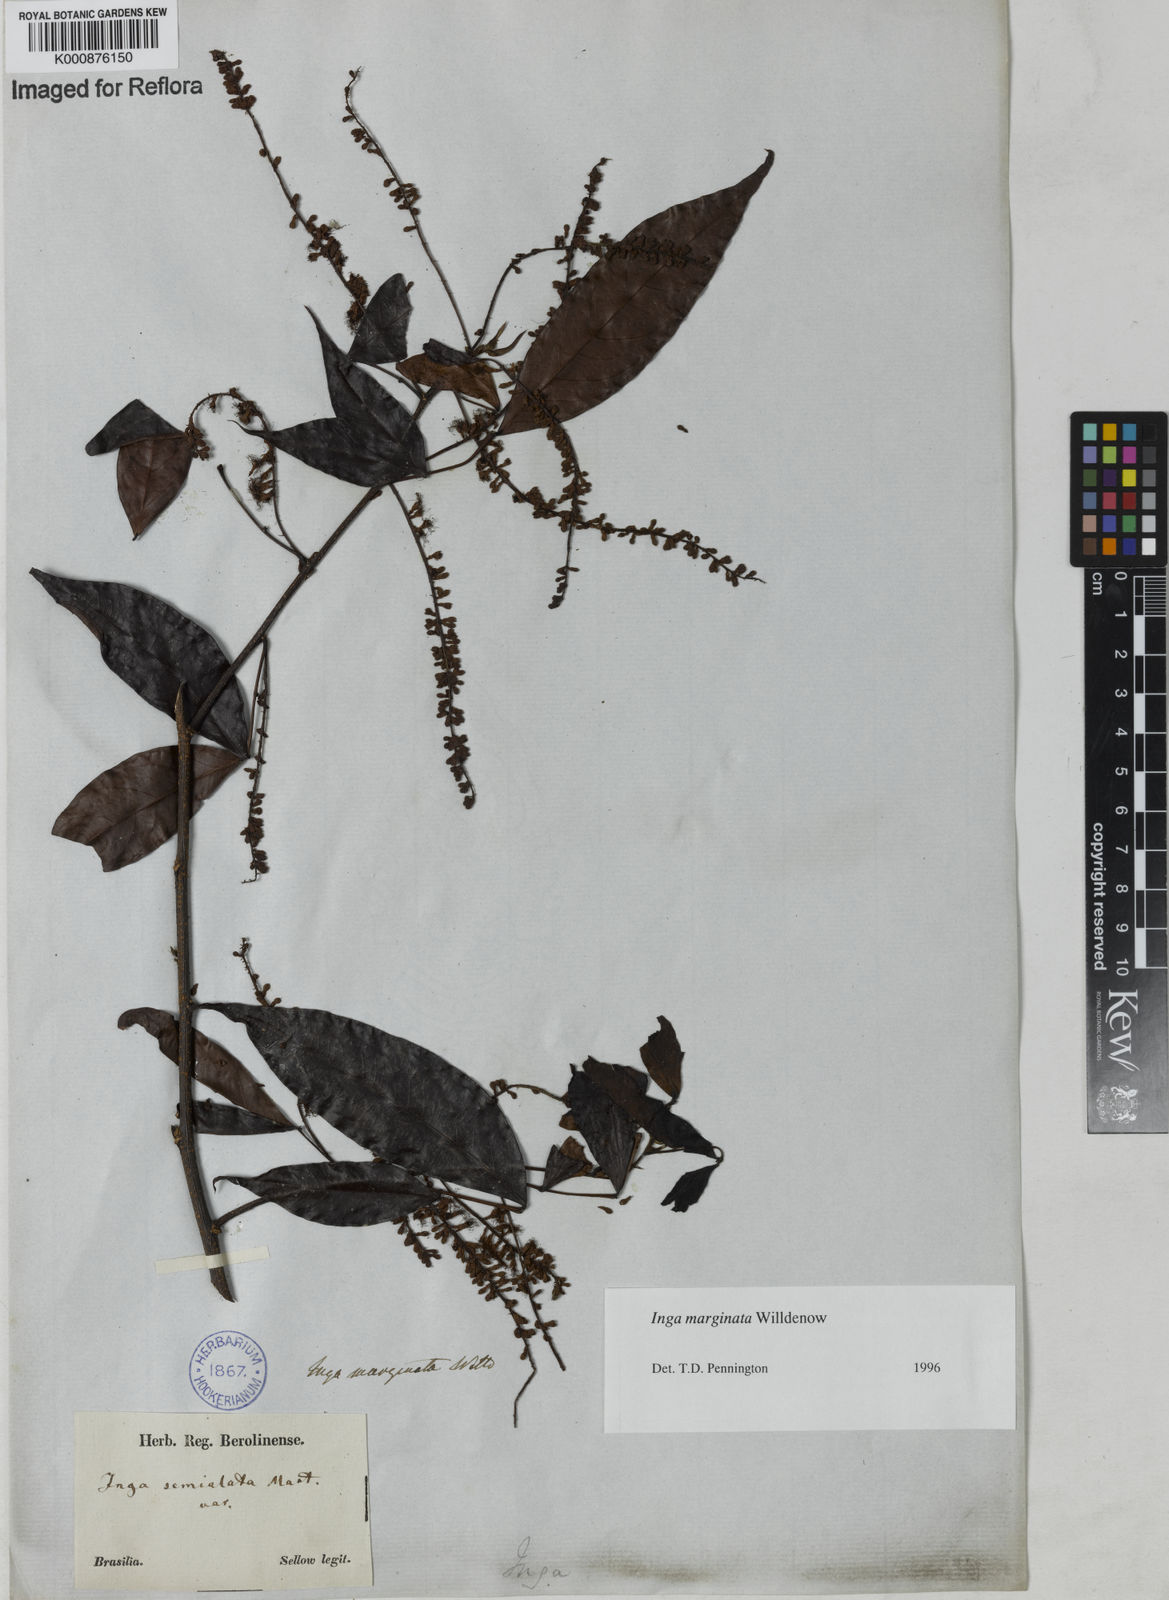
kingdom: Plantae
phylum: Tracheophyta
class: Magnoliopsida
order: Fabales
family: Fabaceae
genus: Inga
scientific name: Inga marginata
